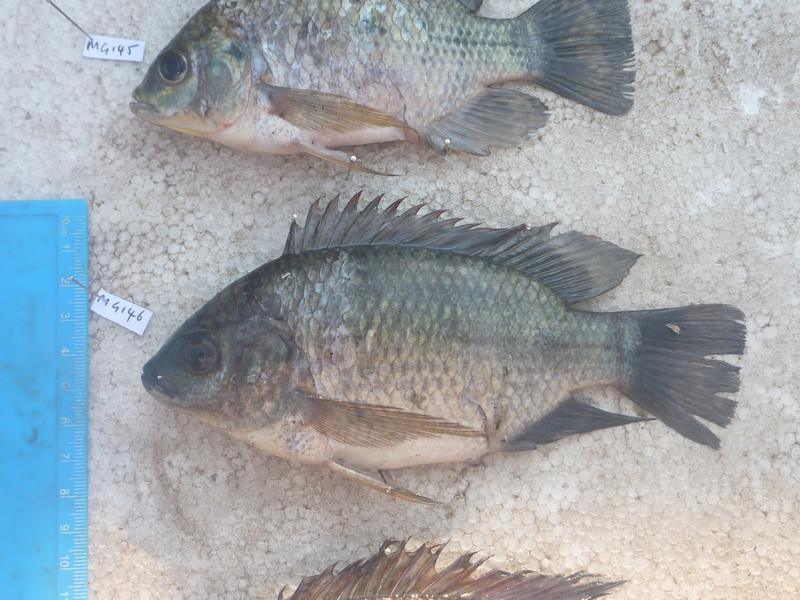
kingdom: Animalia
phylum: Chordata
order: Perciformes
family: Cichlidae
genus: Oreochromis
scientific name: Oreochromis upembae
